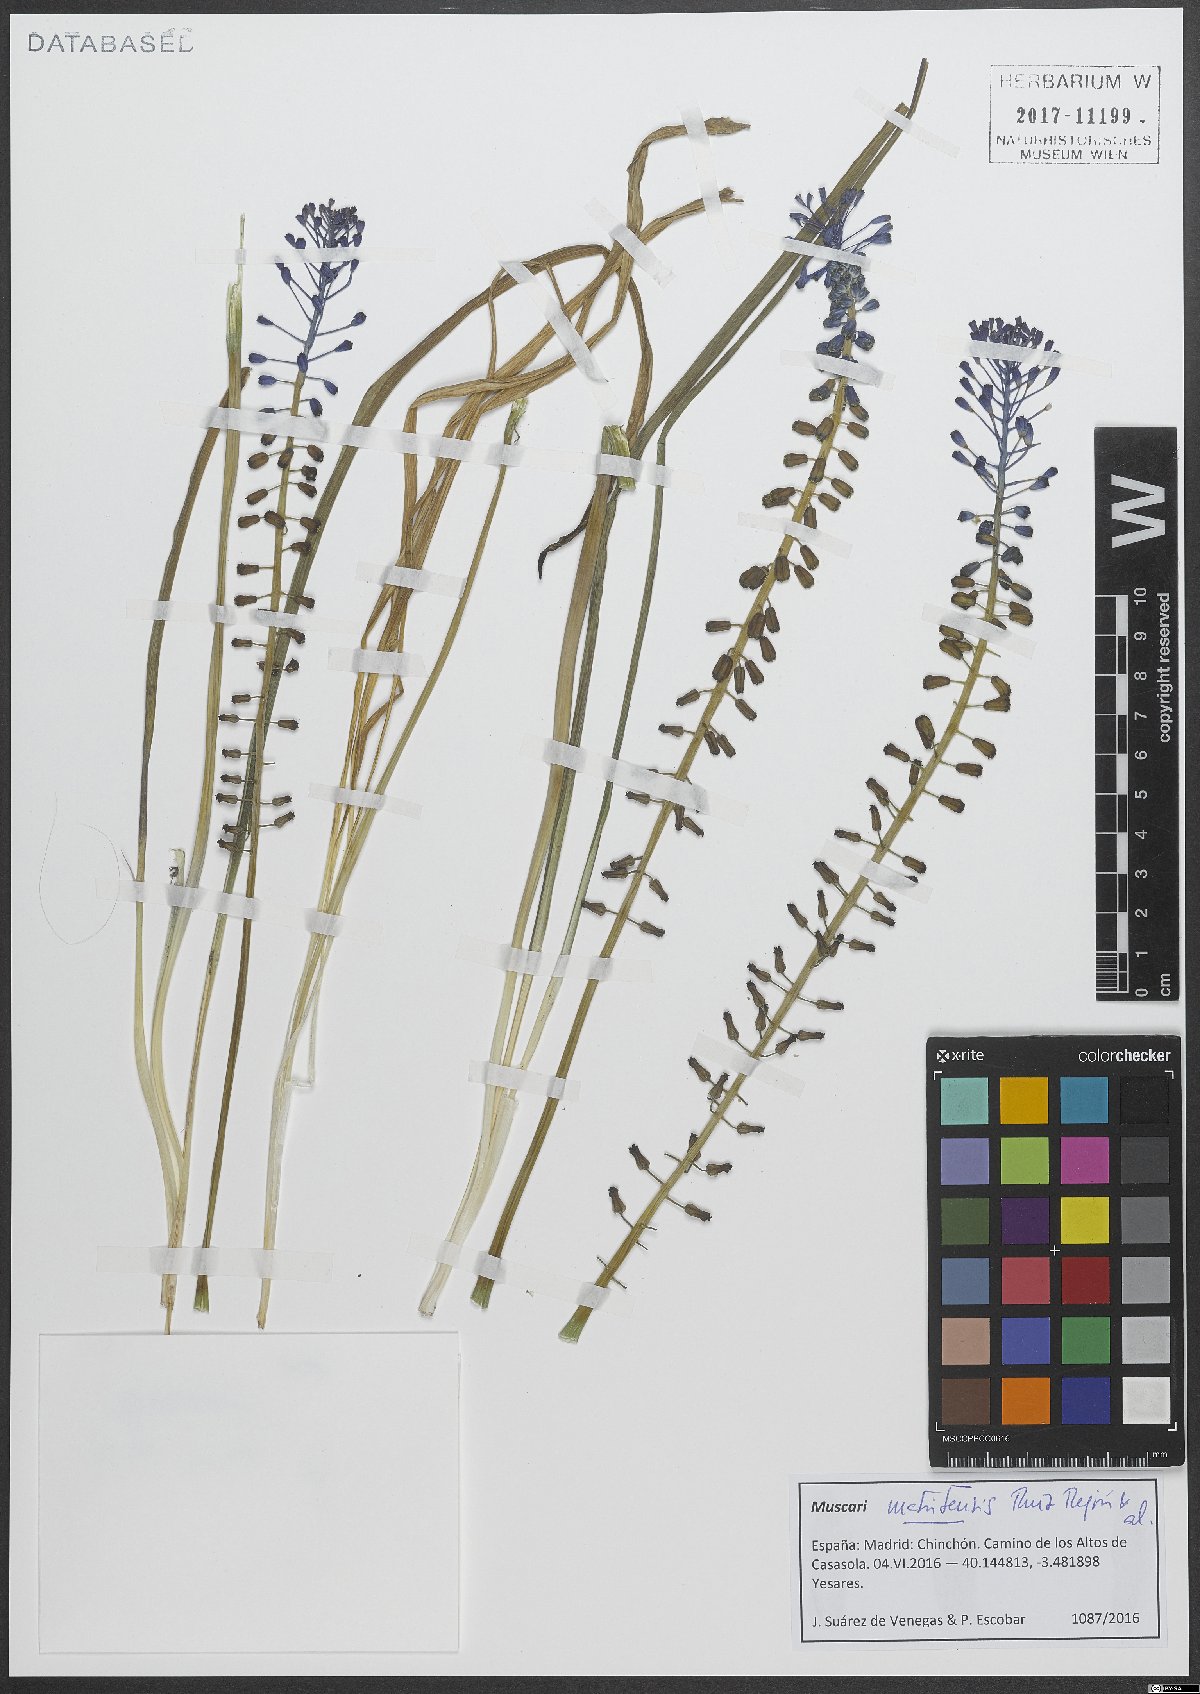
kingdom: Plantae
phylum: Tracheophyta
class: Liliopsida
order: Asparagales
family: Asparagaceae
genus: Muscari
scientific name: Muscari matritense
